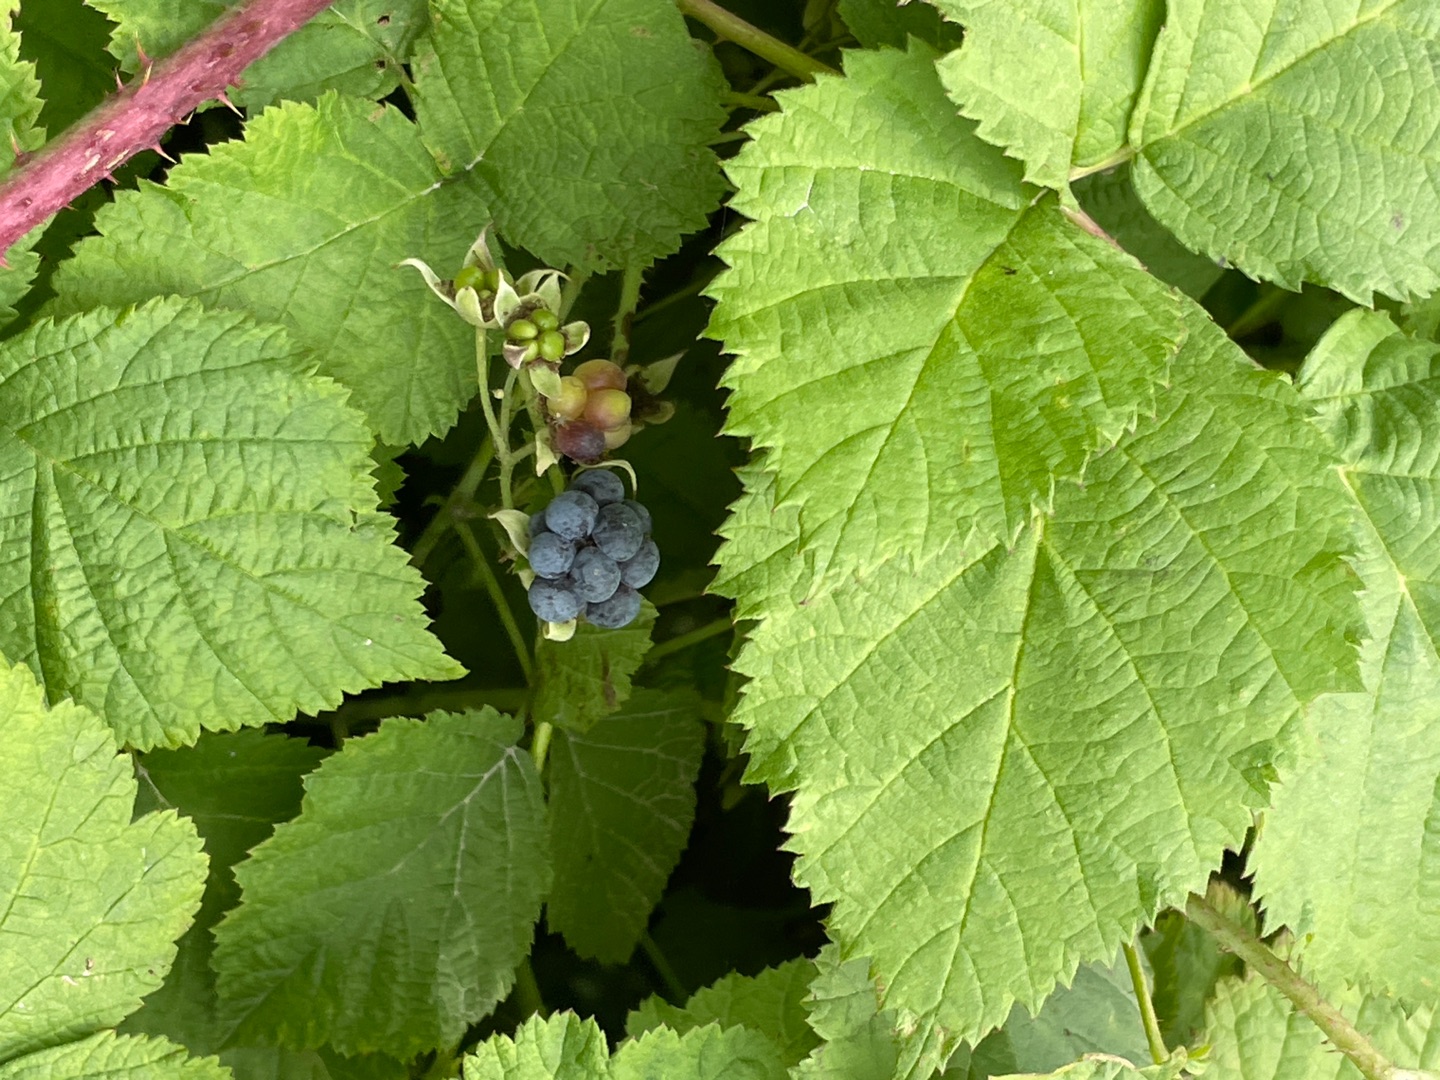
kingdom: Plantae
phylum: Tracheophyta
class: Magnoliopsida
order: Rosales
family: Rosaceae
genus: Rubus
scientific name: Rubus caesius
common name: Korbær
